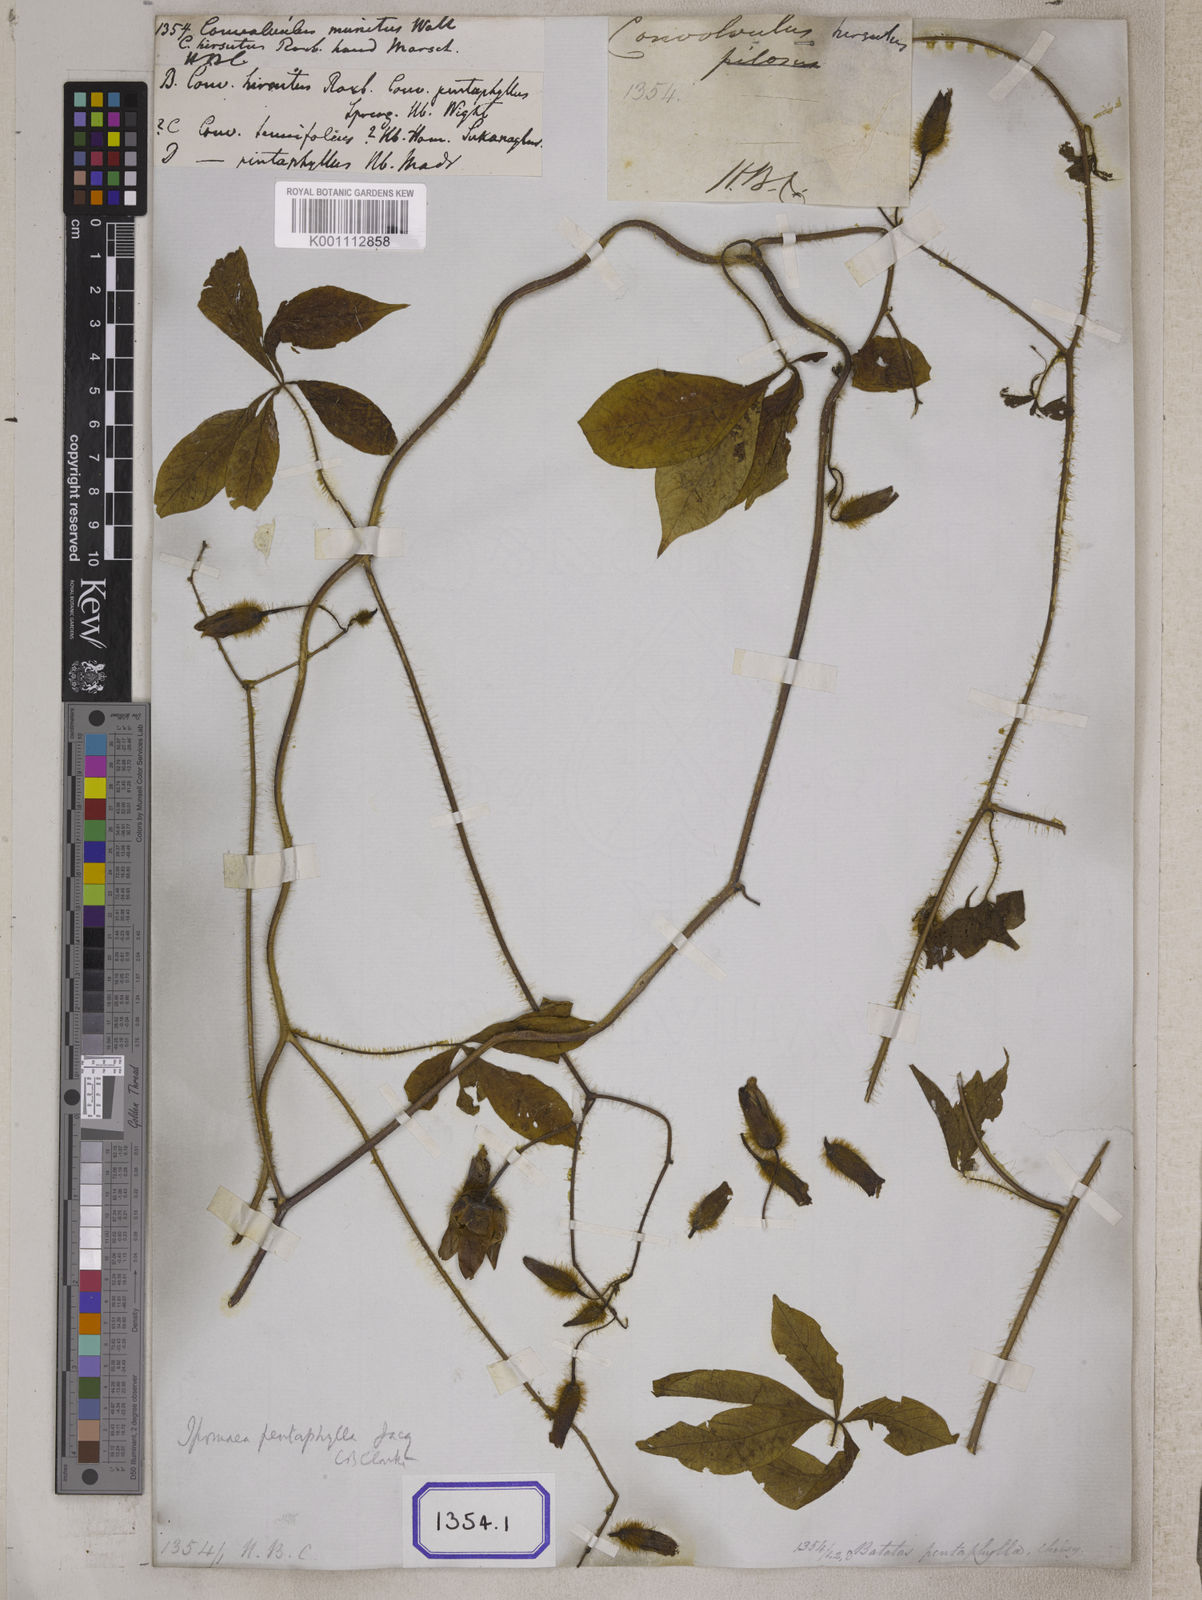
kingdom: Plantae
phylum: Tracheophyta
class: Magnoliopsida
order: Solanales
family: Convolvulaceae
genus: Convolvulus
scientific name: Convolvulus
